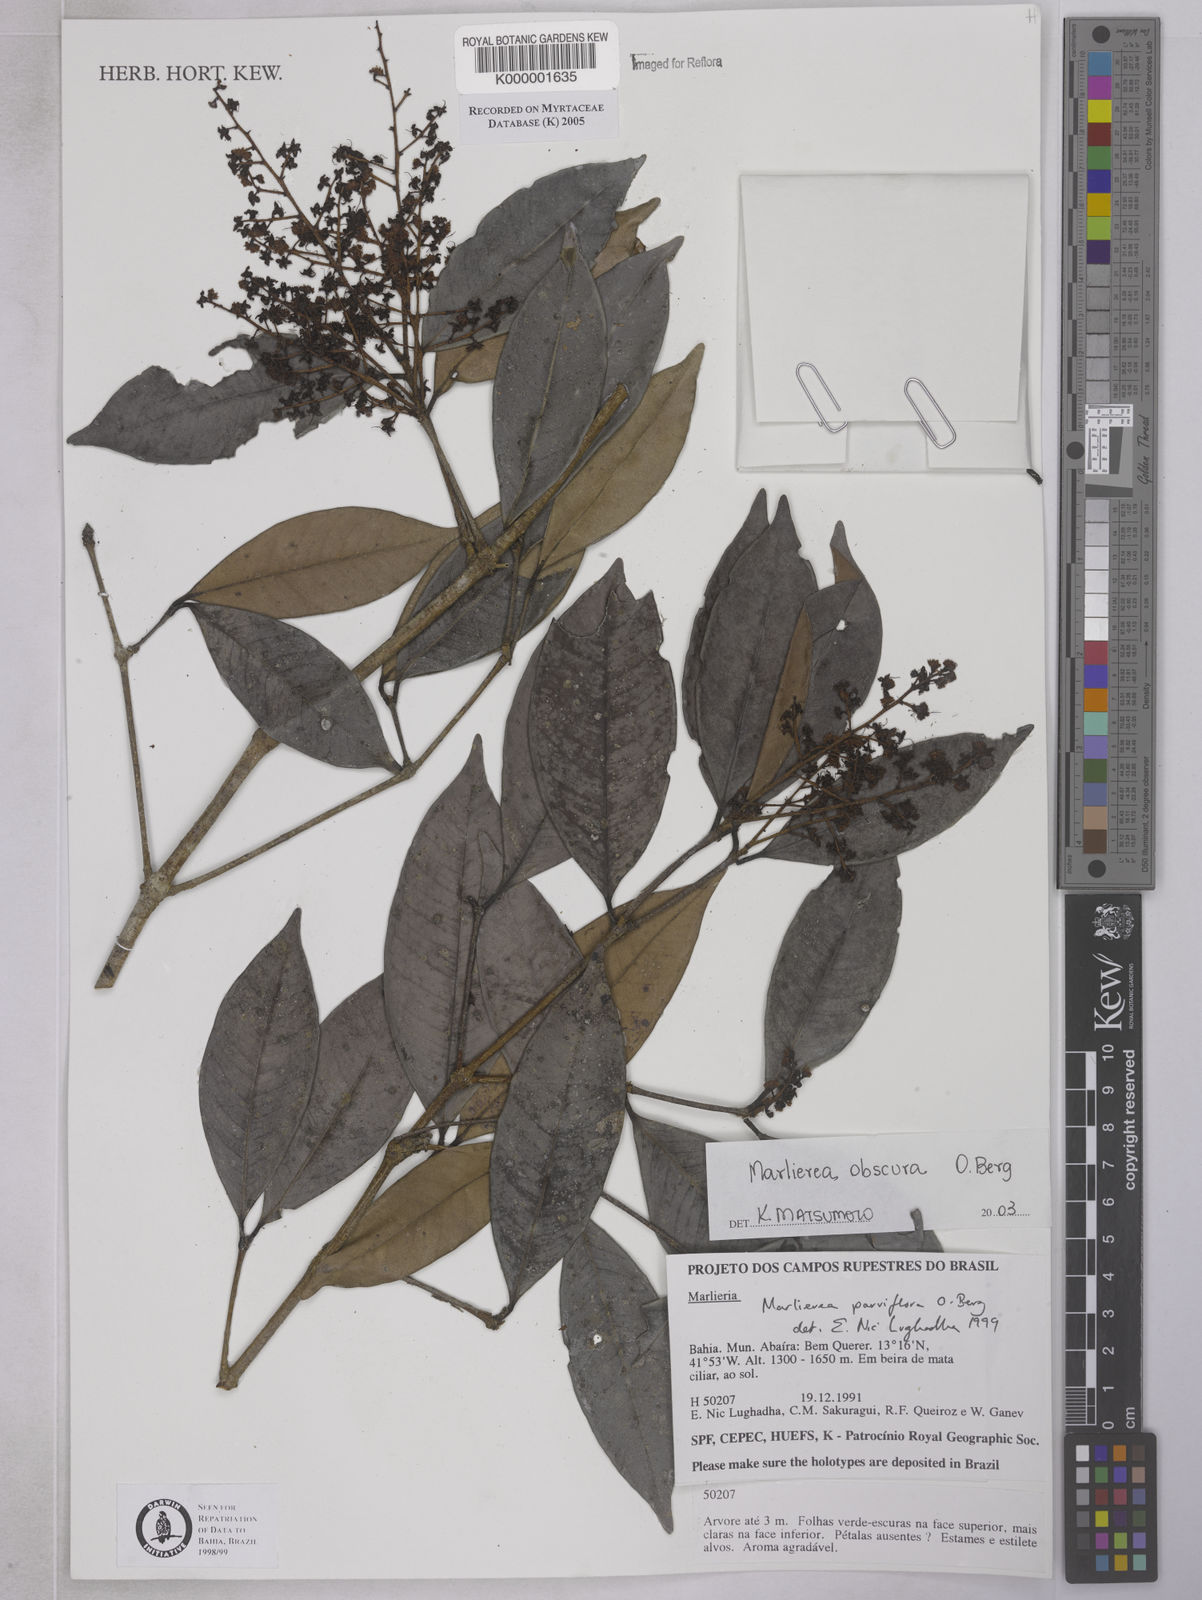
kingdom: Plantae
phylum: Tracheophyta
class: Magnoliopsida
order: Myrtales
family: Myrtaceae
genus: Myrcia
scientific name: Myrcia excoriata
